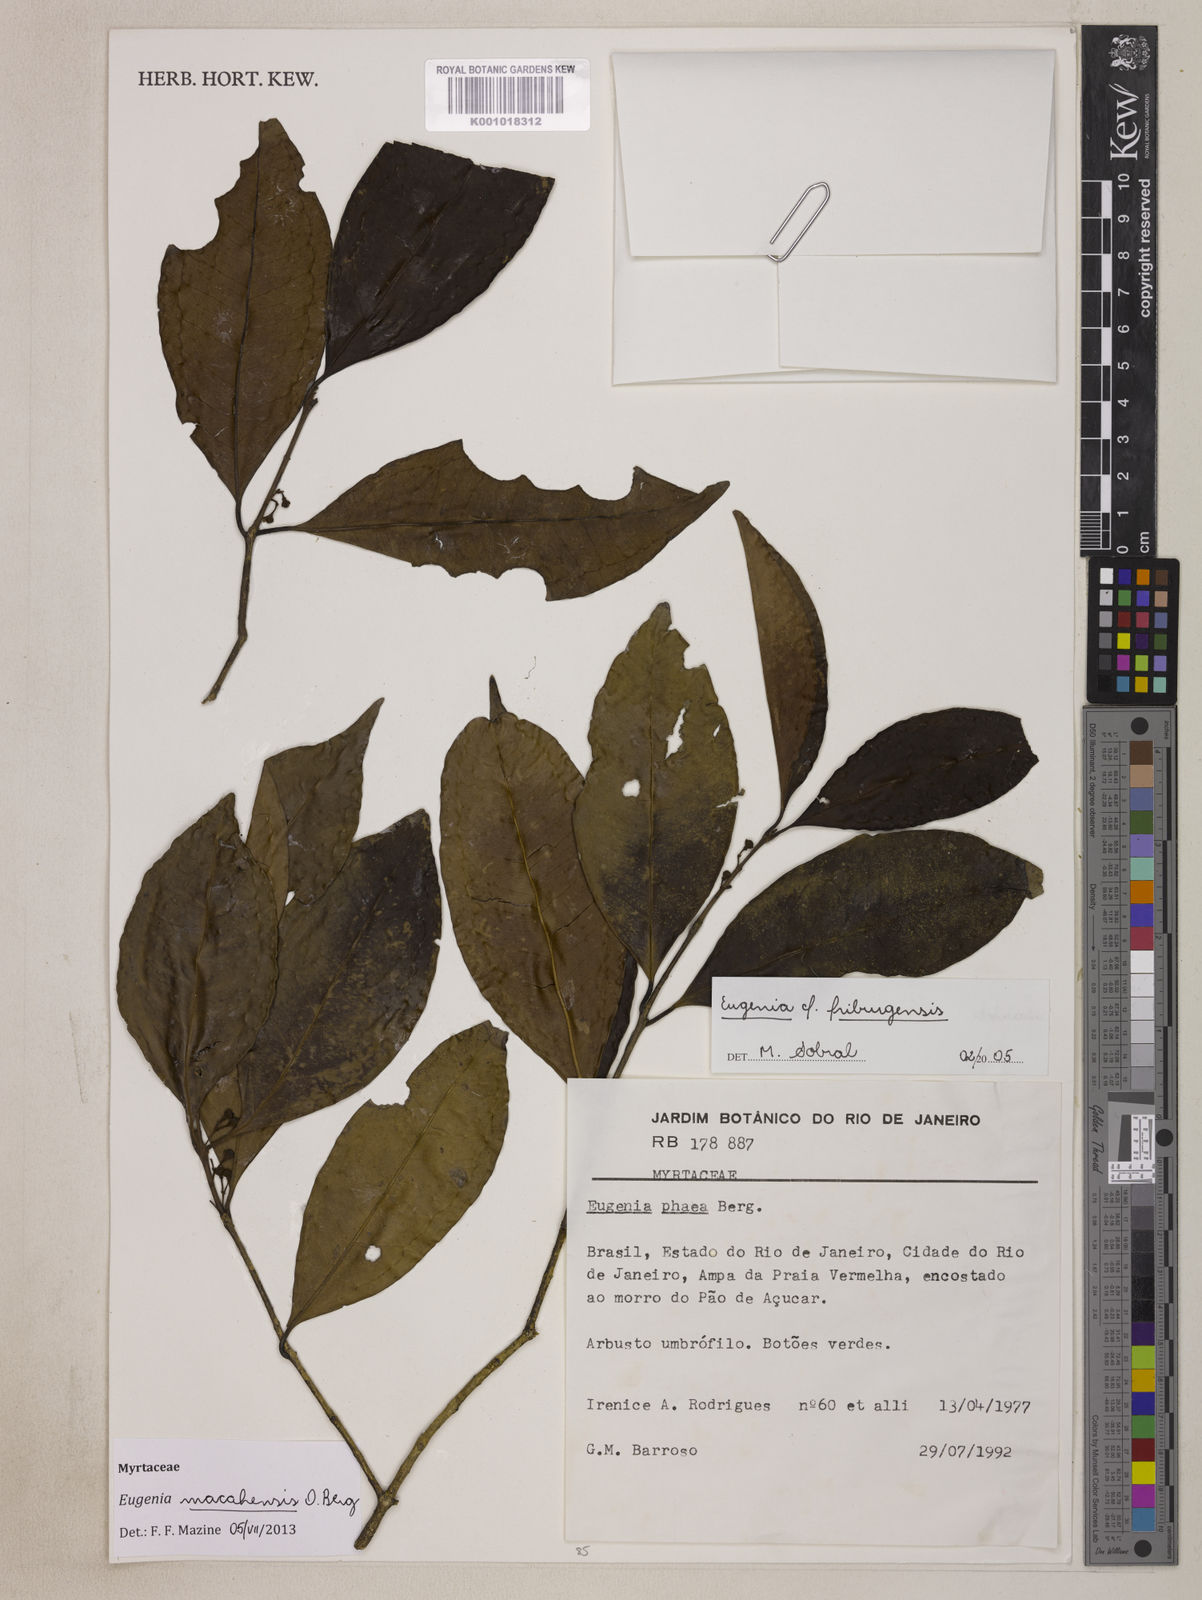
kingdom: Plantae
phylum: Tracheophyta
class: Magnoliopsida
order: Myrtales
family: Myrtaceae
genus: Eugenia
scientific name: Eugenia macahensis
